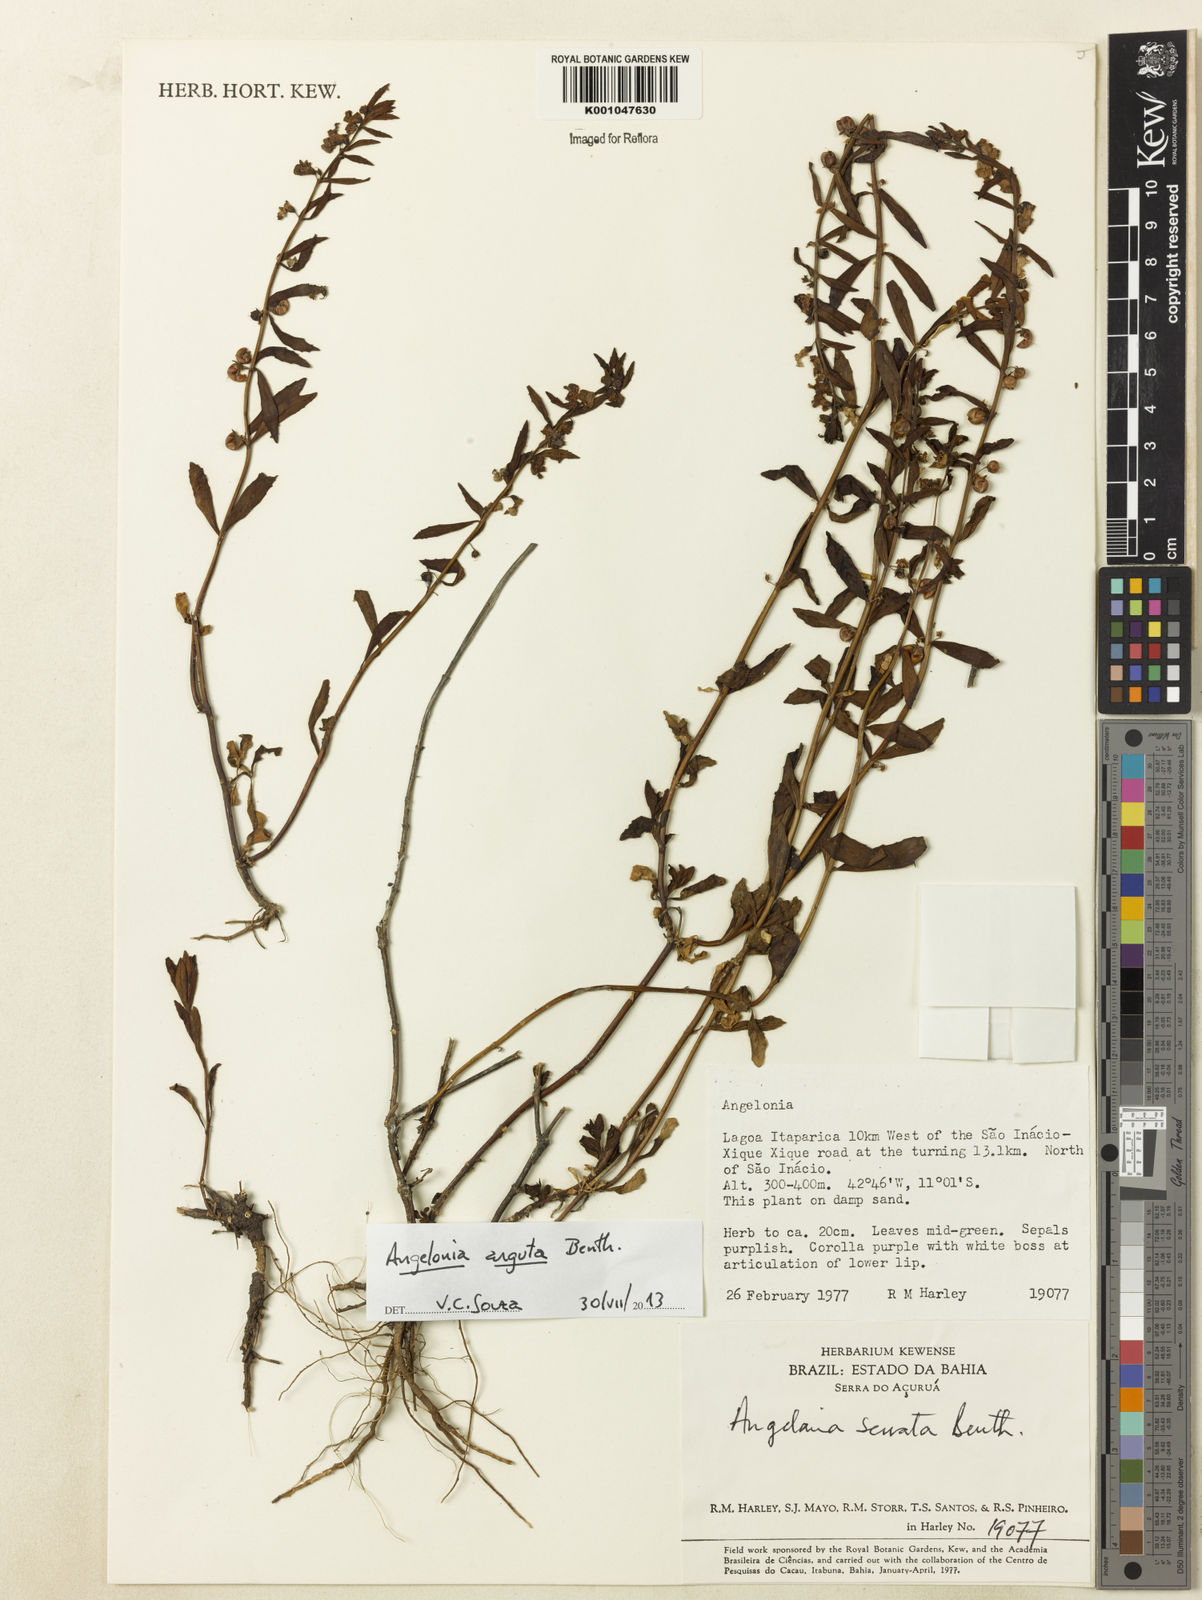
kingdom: Plantae
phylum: Tracheophyta
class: Magnoliopsida
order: Lamiales
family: Plantaginaceae
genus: Angelonia
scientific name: Angelonia arguta
